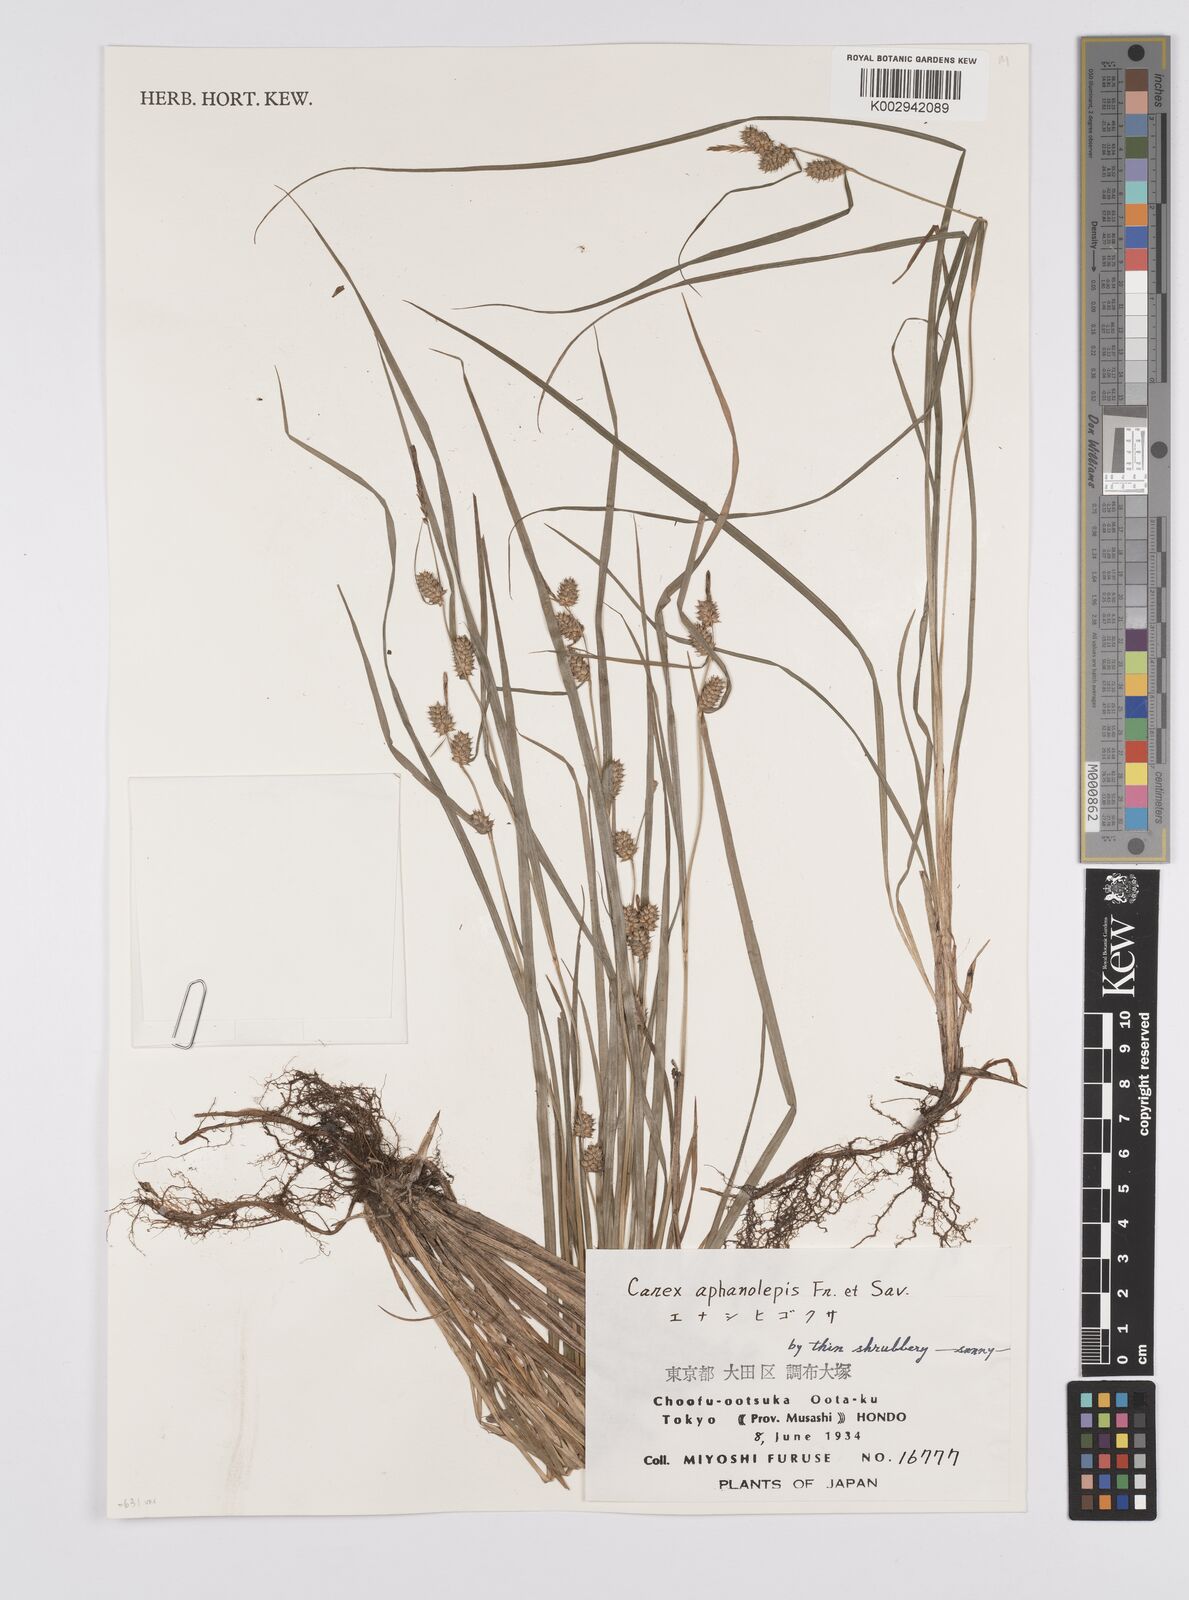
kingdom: Plantae
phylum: Tracheophyta
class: Liliopsida
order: Poales
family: Cyperaceae
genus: Carex
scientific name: Carex japonica
